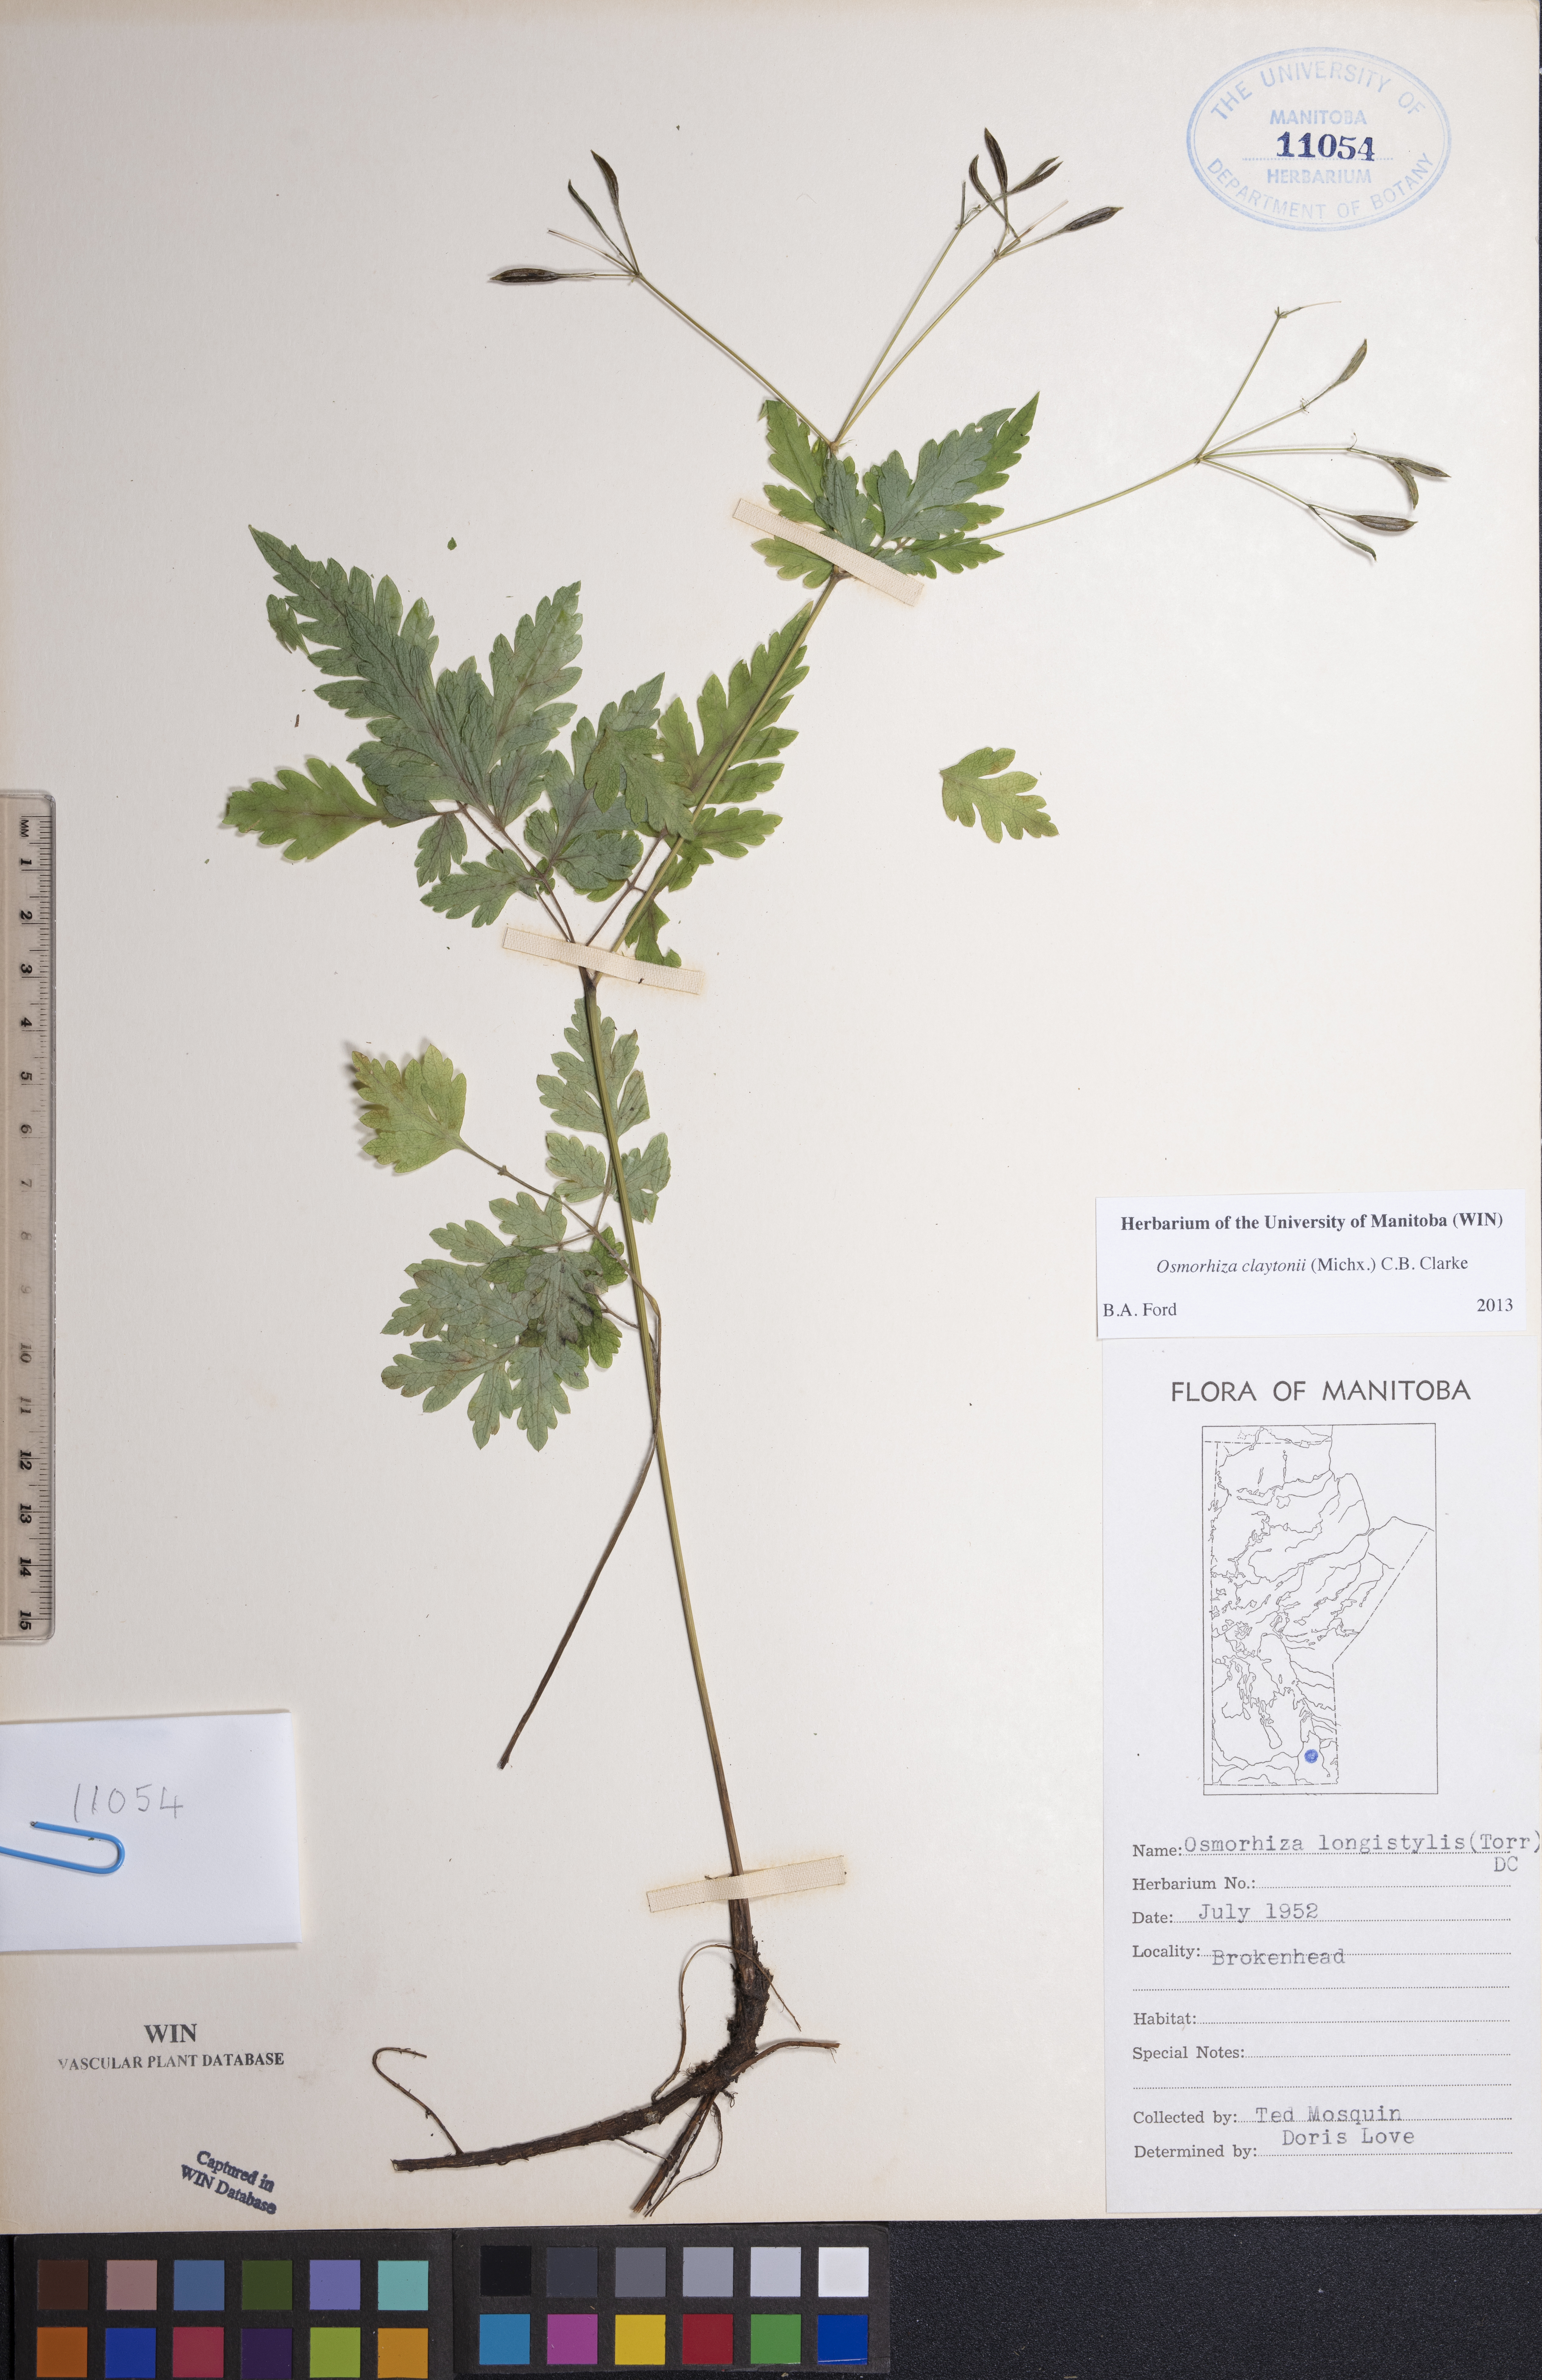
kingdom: Plantae
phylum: Tracheophyta
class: Magnoliopsida
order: Apiales
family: Apiaceae
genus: Osmorhiza
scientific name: Osmorhiza claytonii
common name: Hairy sweet cicely
